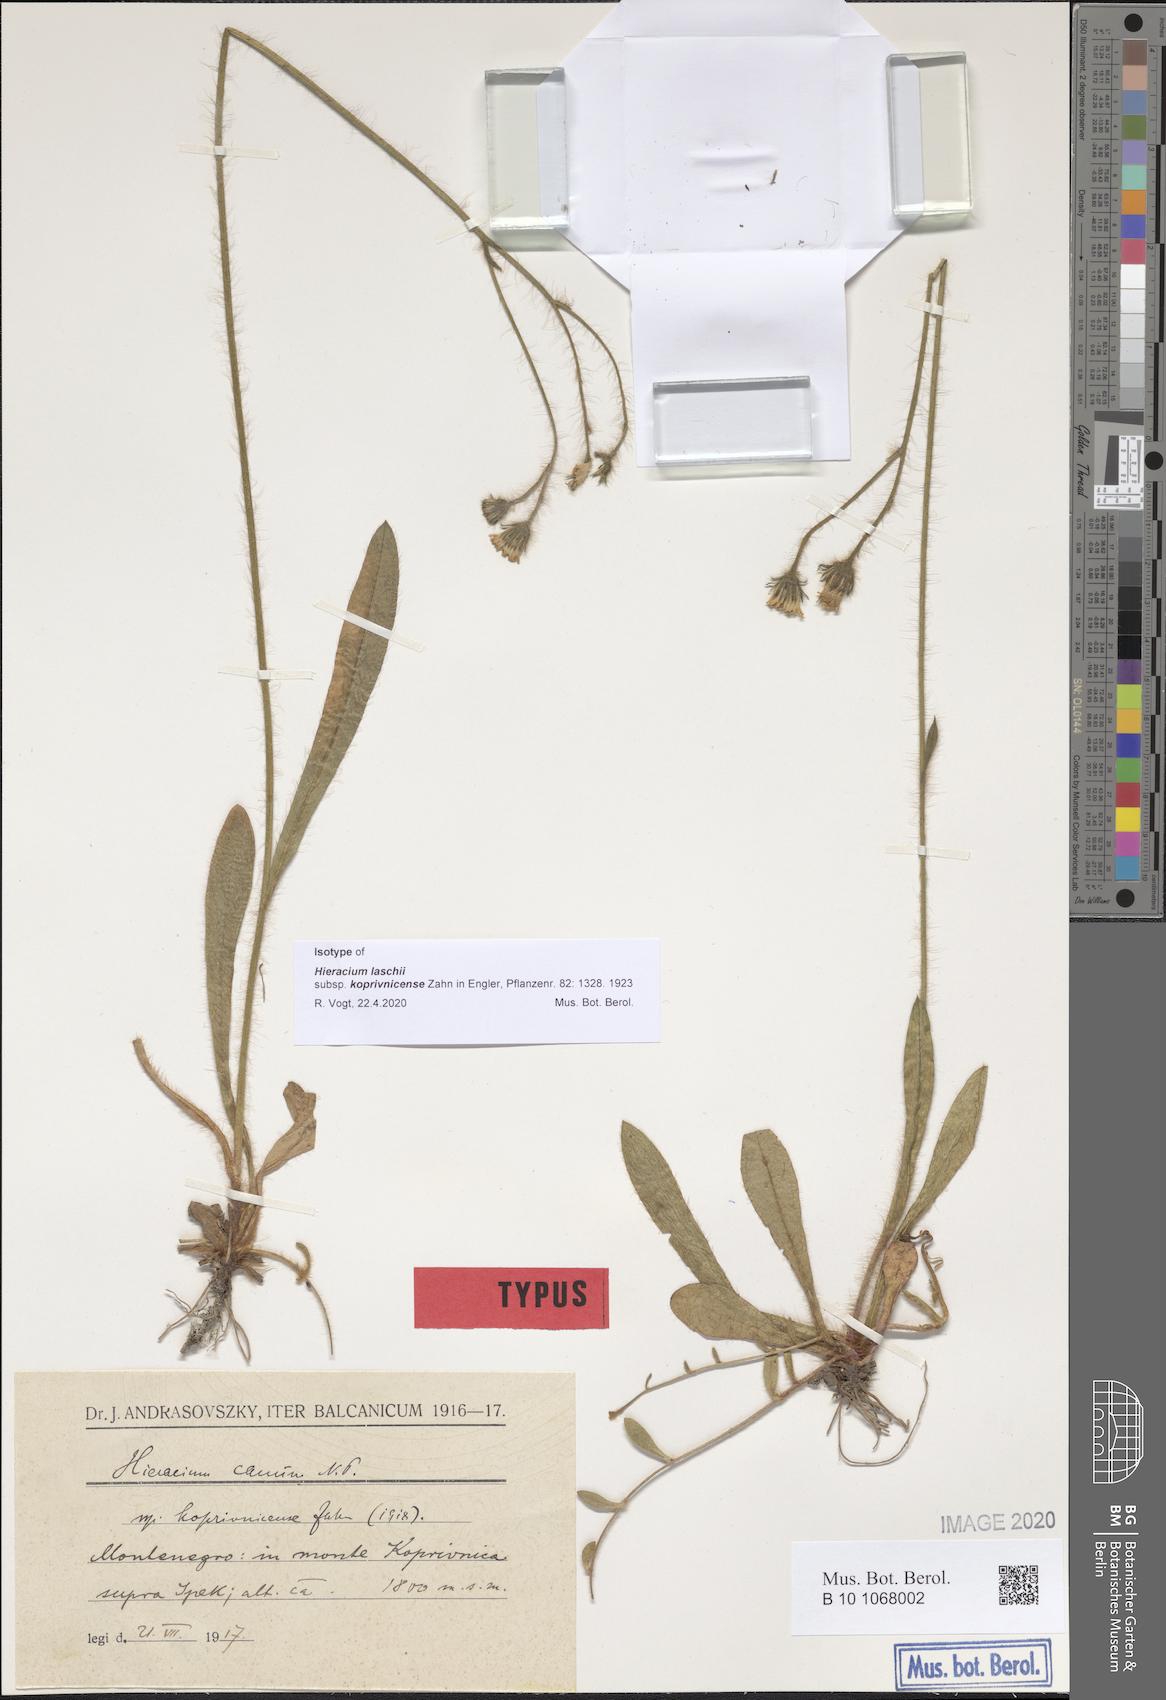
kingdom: Plantae
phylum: Tracheophyta
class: Magnoliopsida
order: Asterales
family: Asteraceae
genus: Pilosella
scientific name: Pilosella cana
